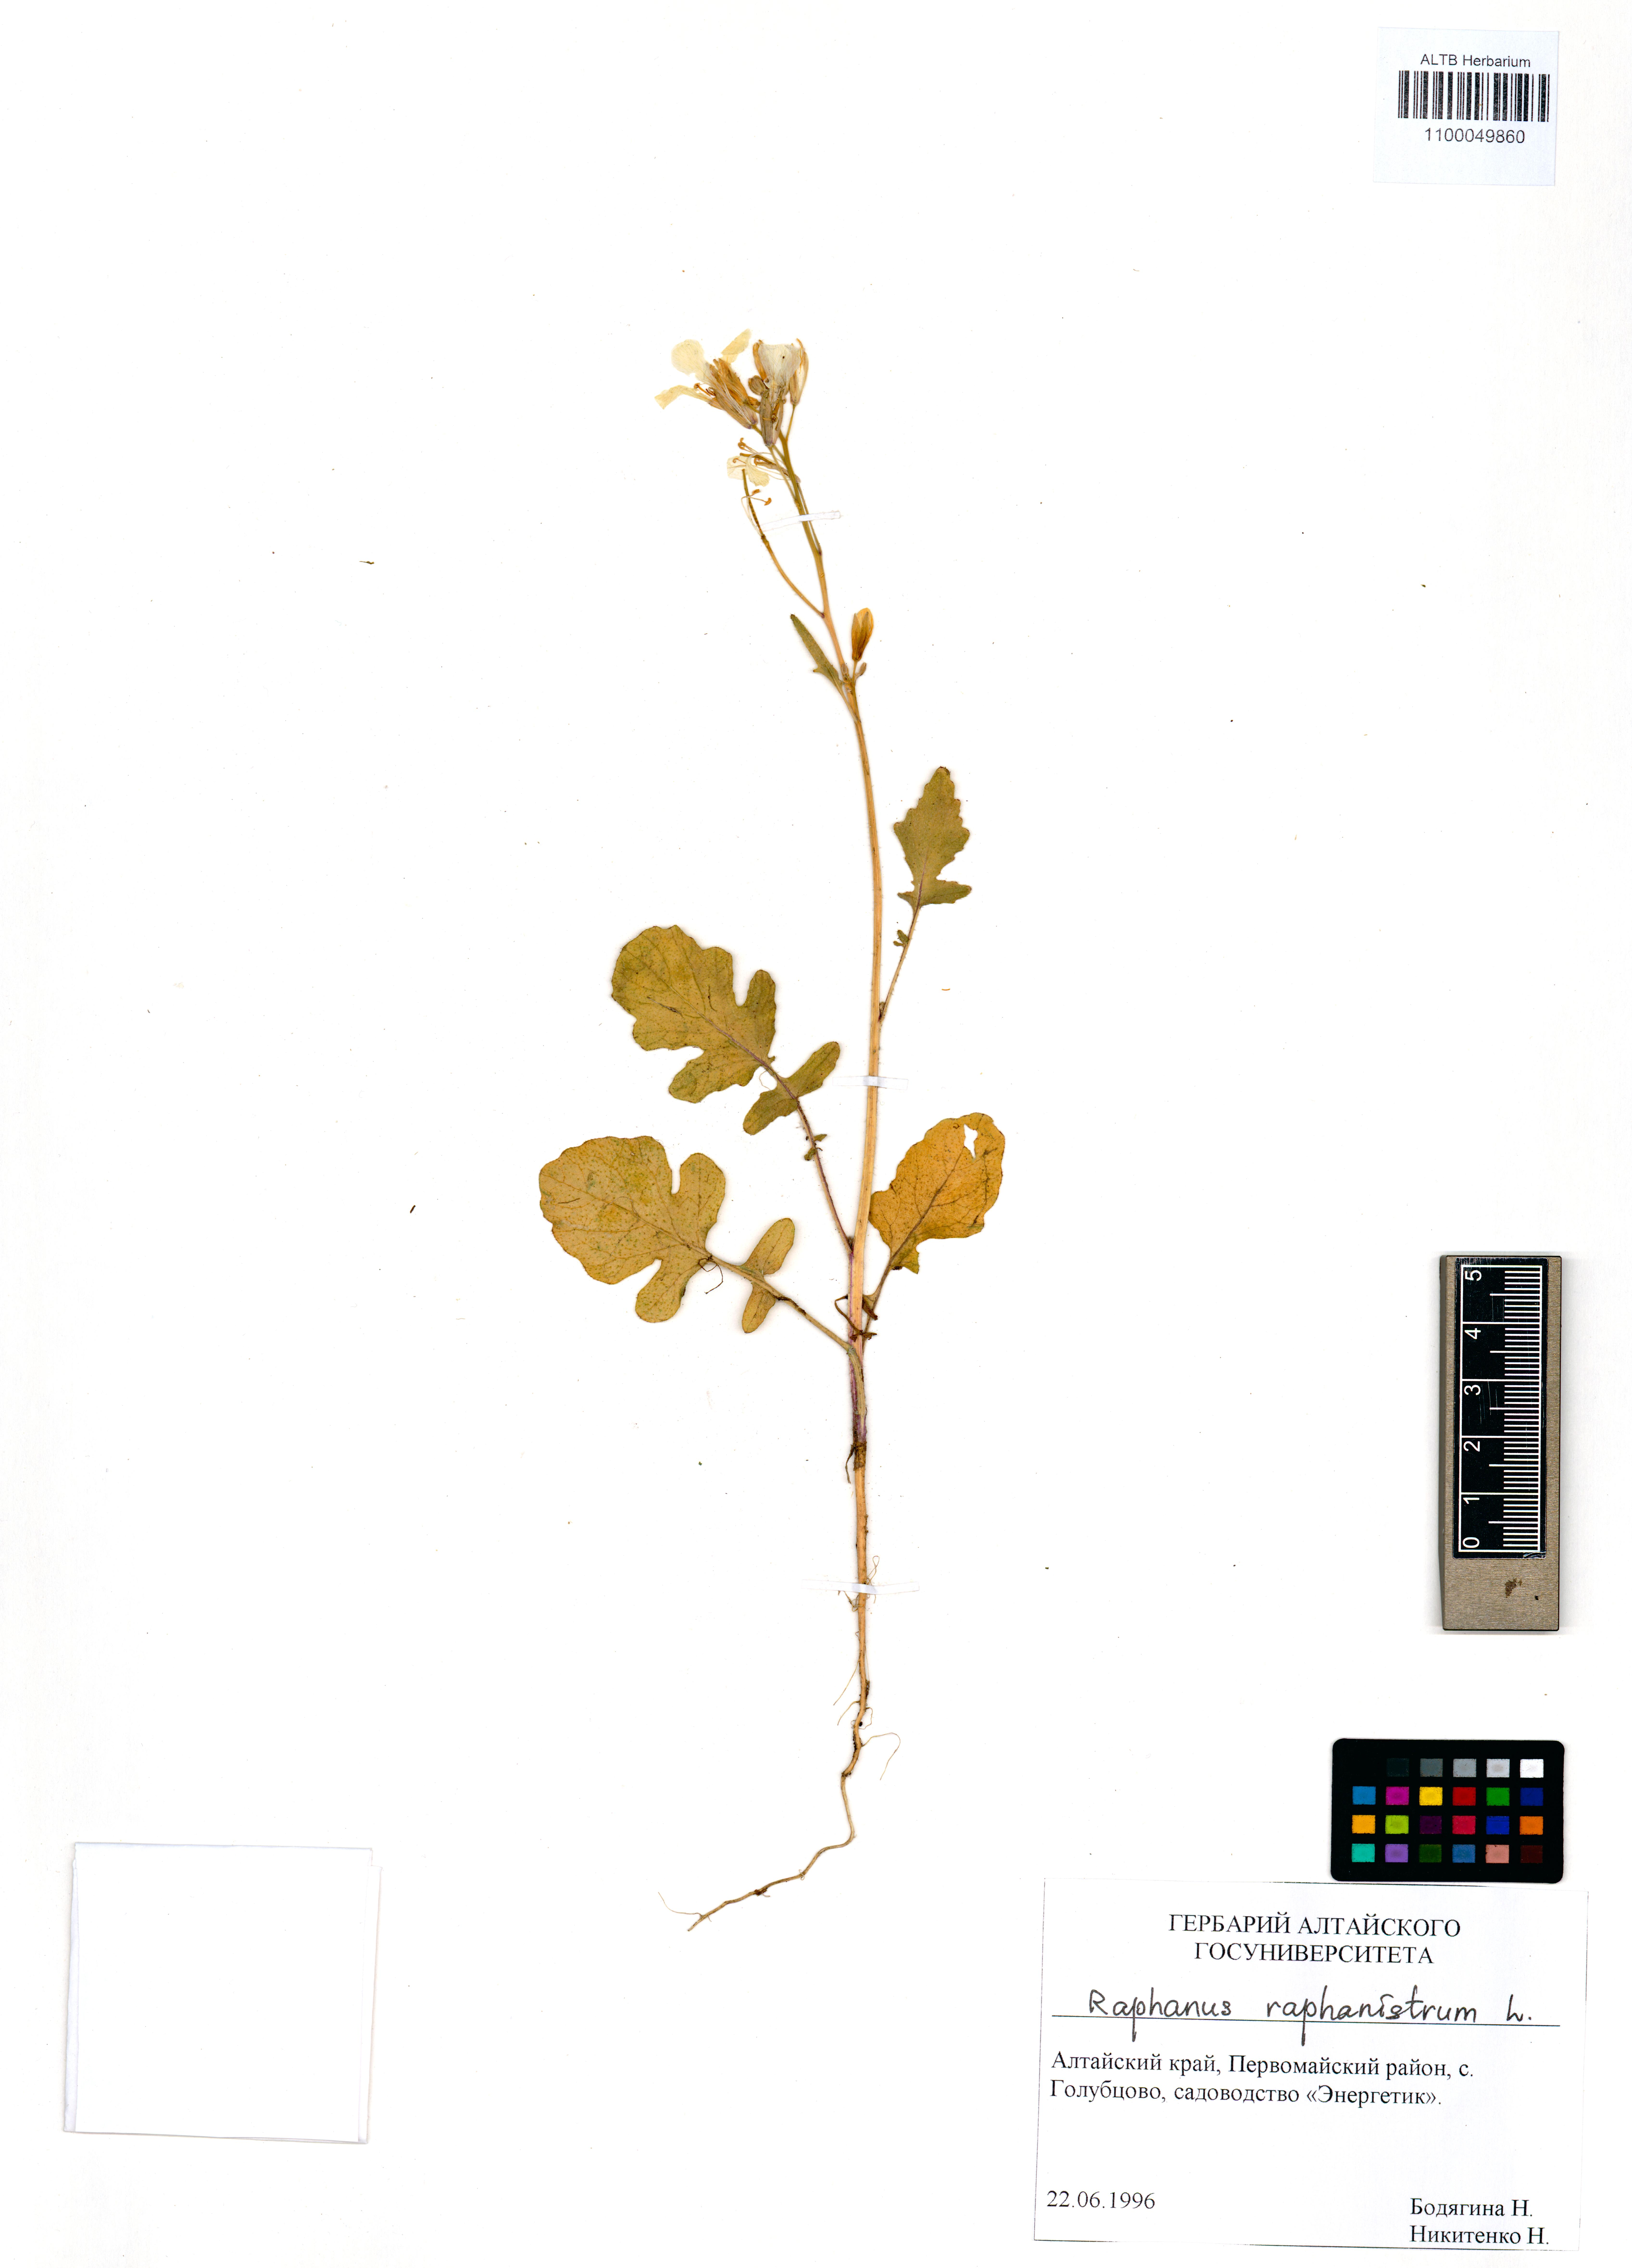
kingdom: Plantae
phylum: Tracheophyta
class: Magnoliopsida
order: Brassicales
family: Brassicaceae
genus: Raphanus
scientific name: Raphanus raphanistrum
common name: Wild radish
